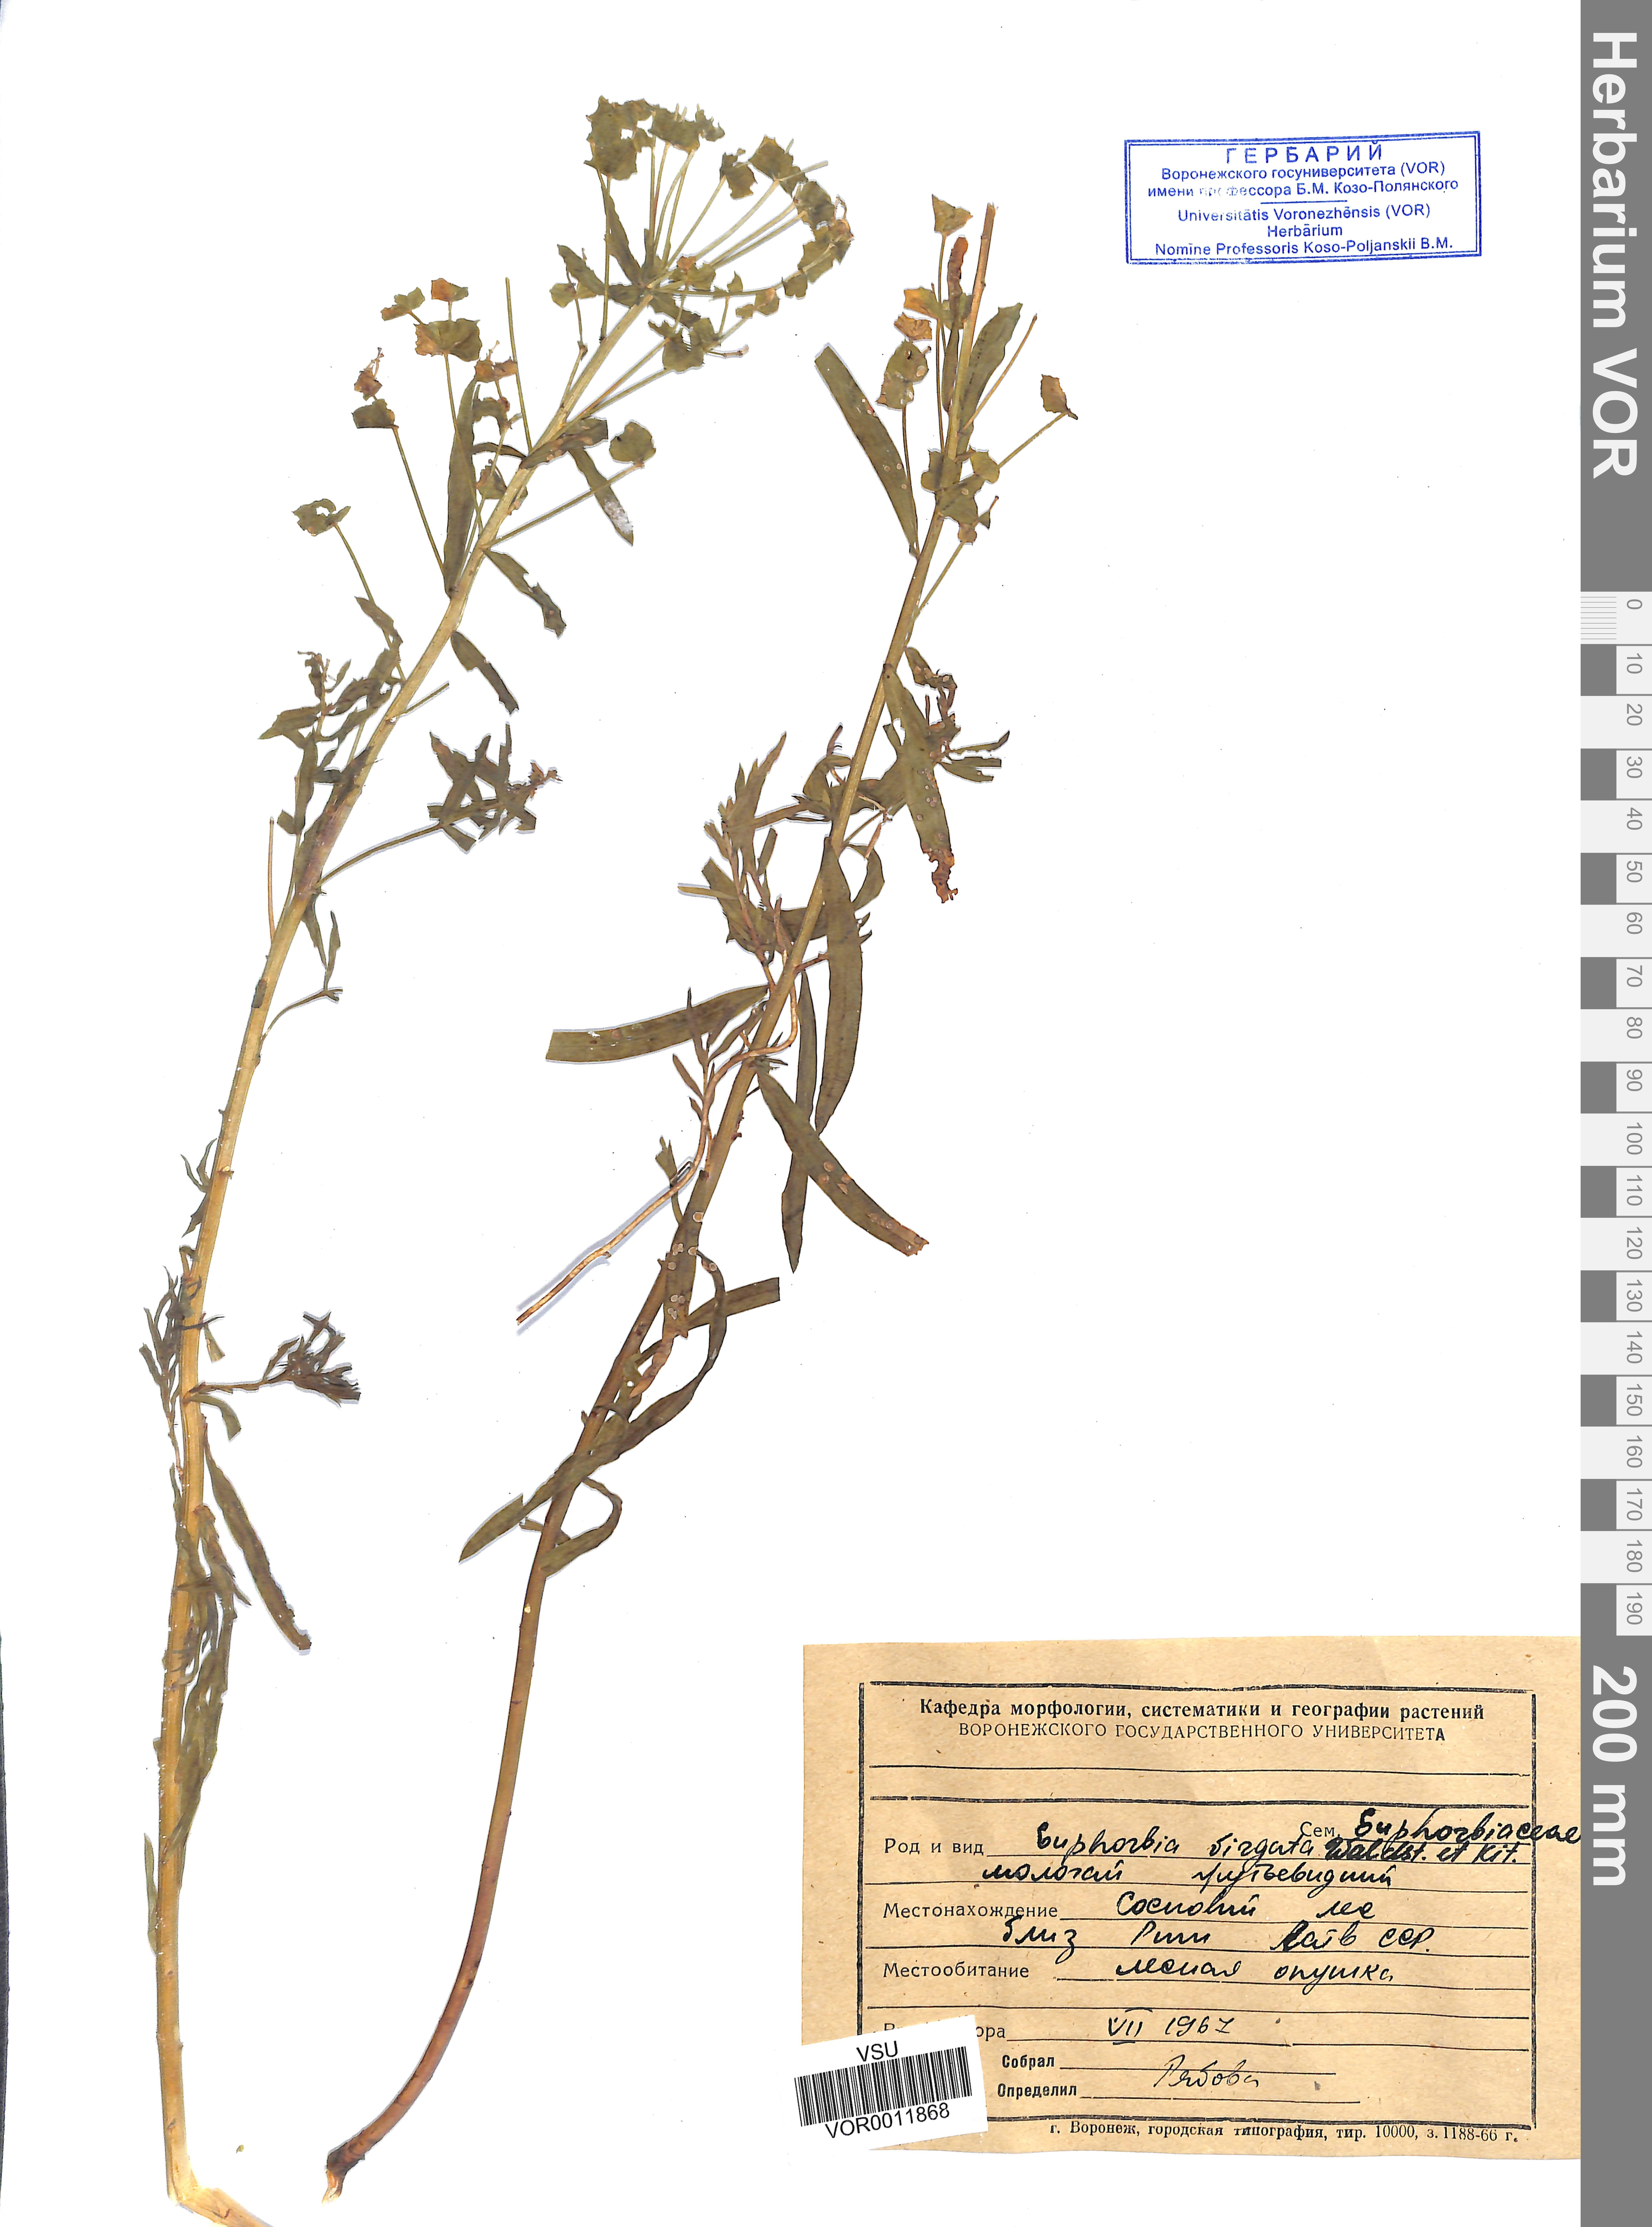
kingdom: Plantae
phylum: Tracheophyta
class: Magnoliopsida
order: Malpighiales
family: Euphorbiaceae
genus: Euphorbia
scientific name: Euphorbia virgata
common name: Leafy spurge
